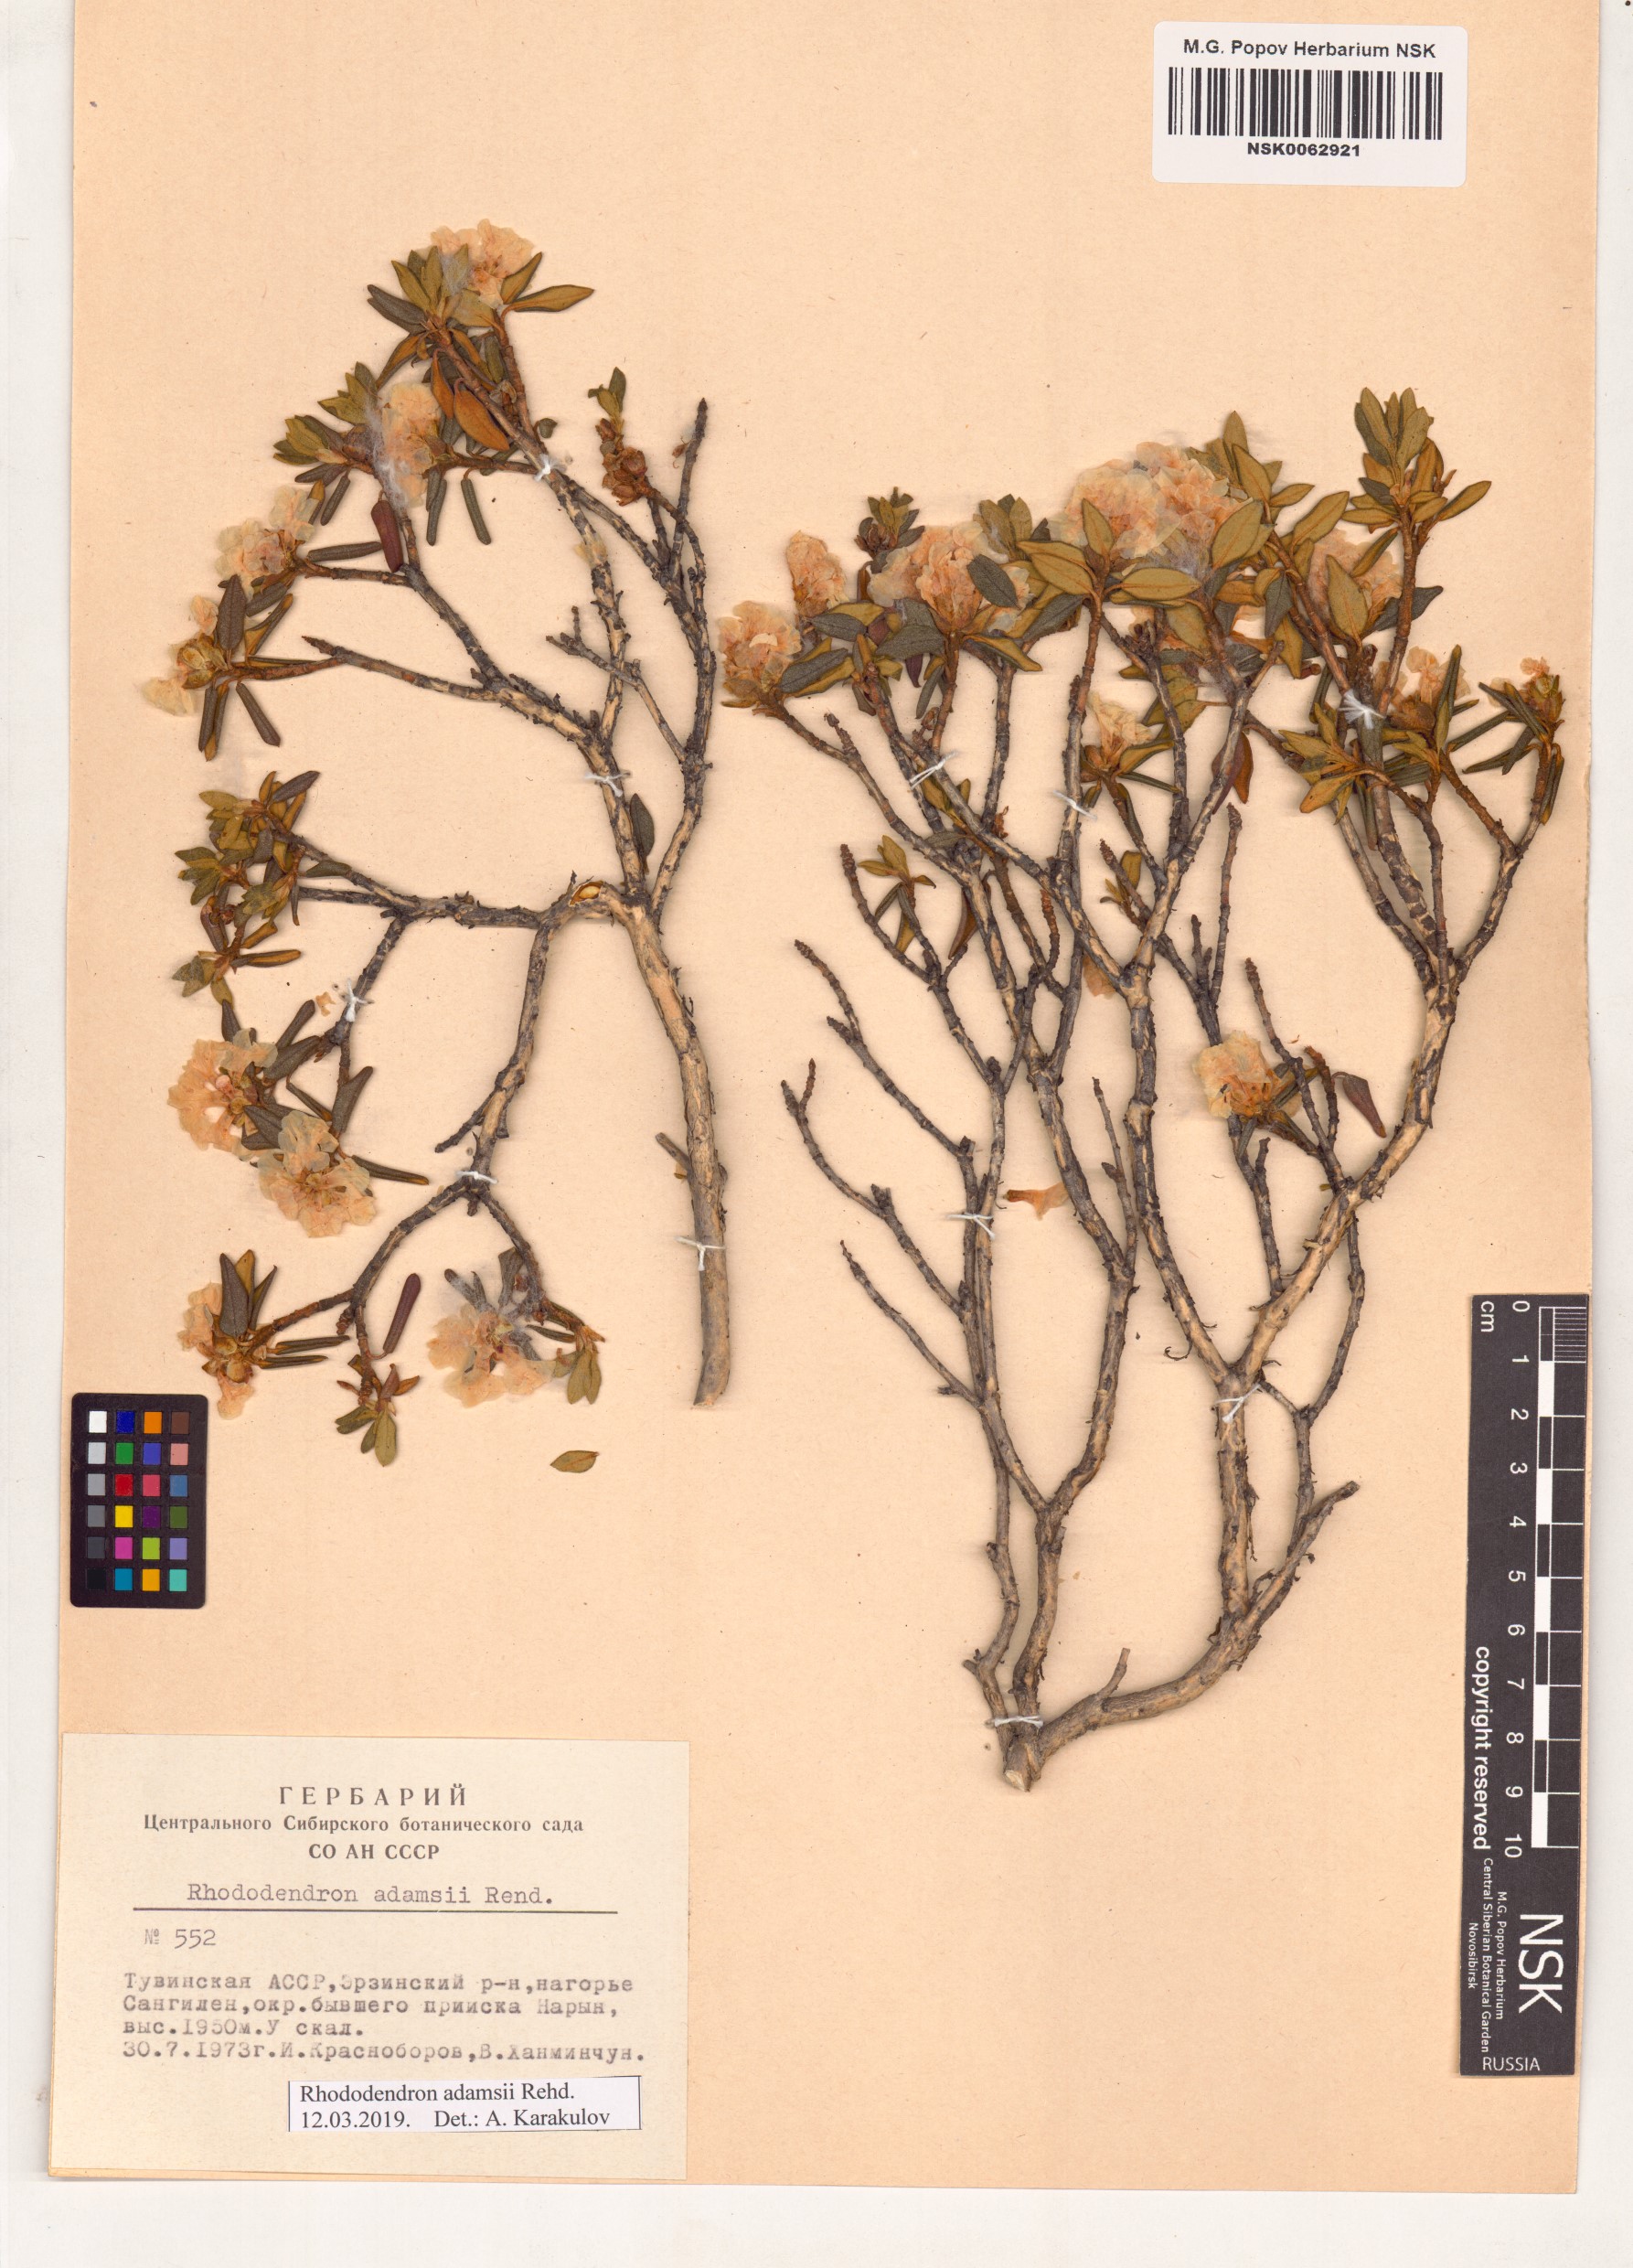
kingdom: Plantae
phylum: Tracheophyta
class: Magnoliopsida
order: Ericales
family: Ericaceae
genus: Rhododendron
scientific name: Rhododendron adamsii
